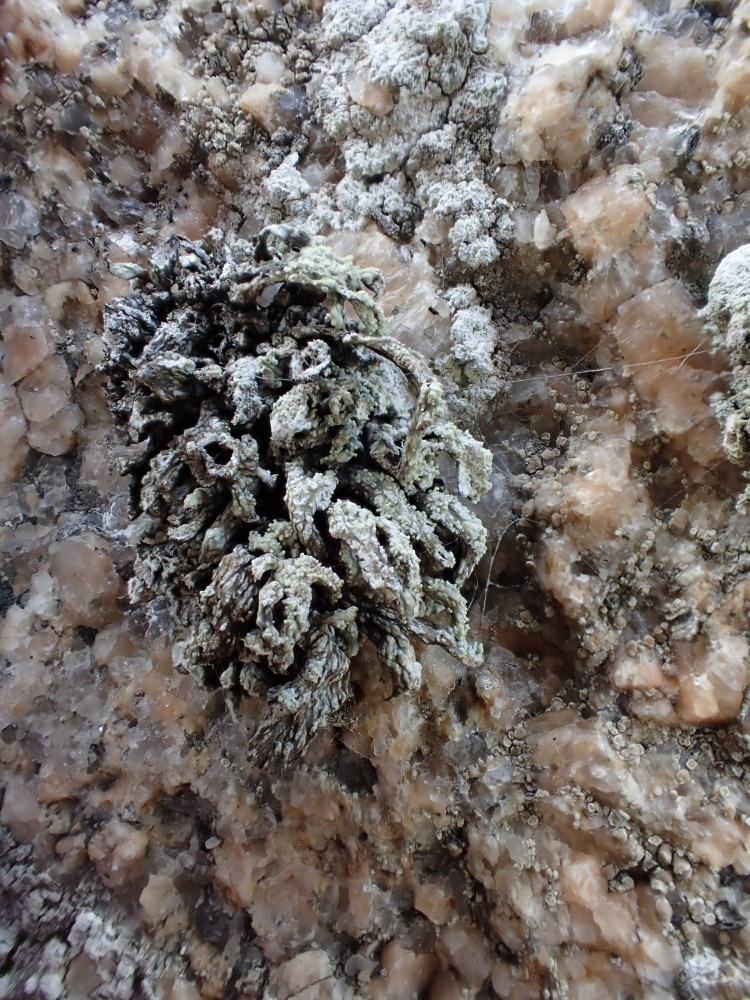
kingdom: Fungi
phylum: Ascomycota
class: Lecanoromycetes
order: Lecanorales
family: Ramalinaceae
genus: Ramalina
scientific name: Ramalina siliquosa
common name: klippe-grenlav
